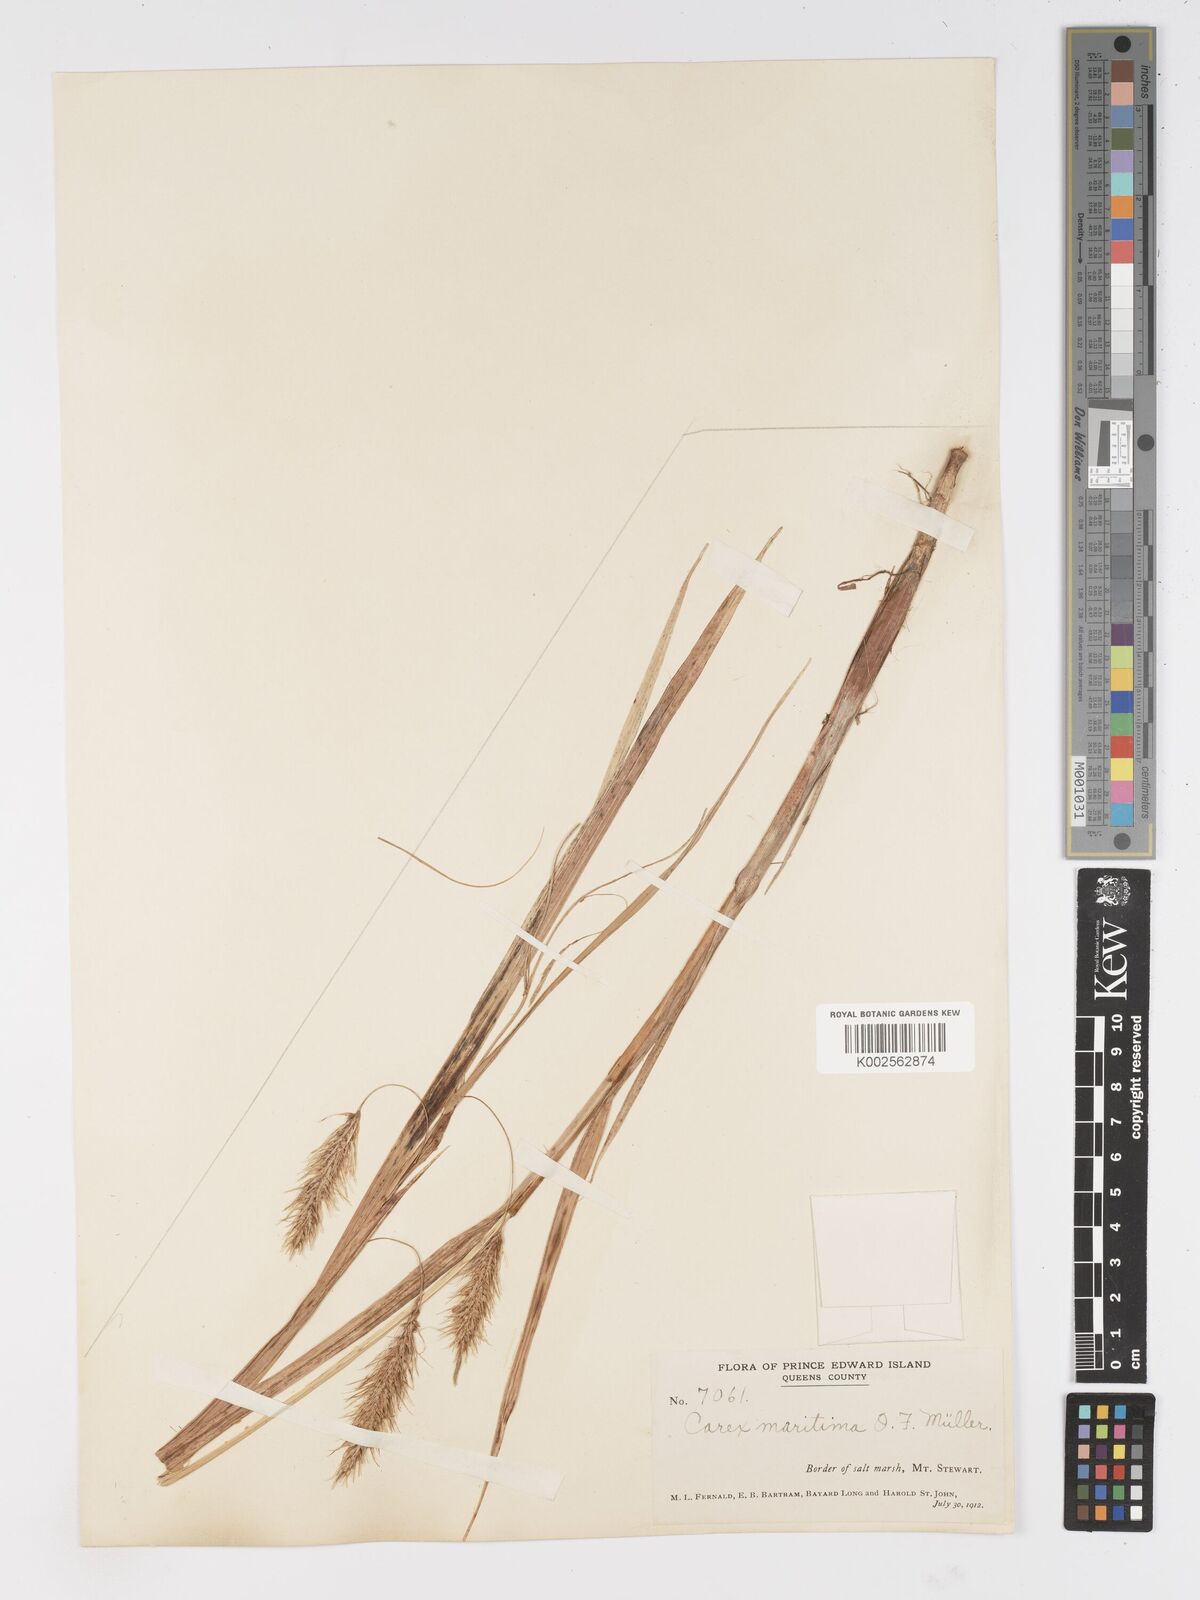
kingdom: Plantae
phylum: Tracheophyta
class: Liliopsida
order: Poales
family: Cyperaceae
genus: Carex
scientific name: Carex paleacea
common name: Chaffy sedge
